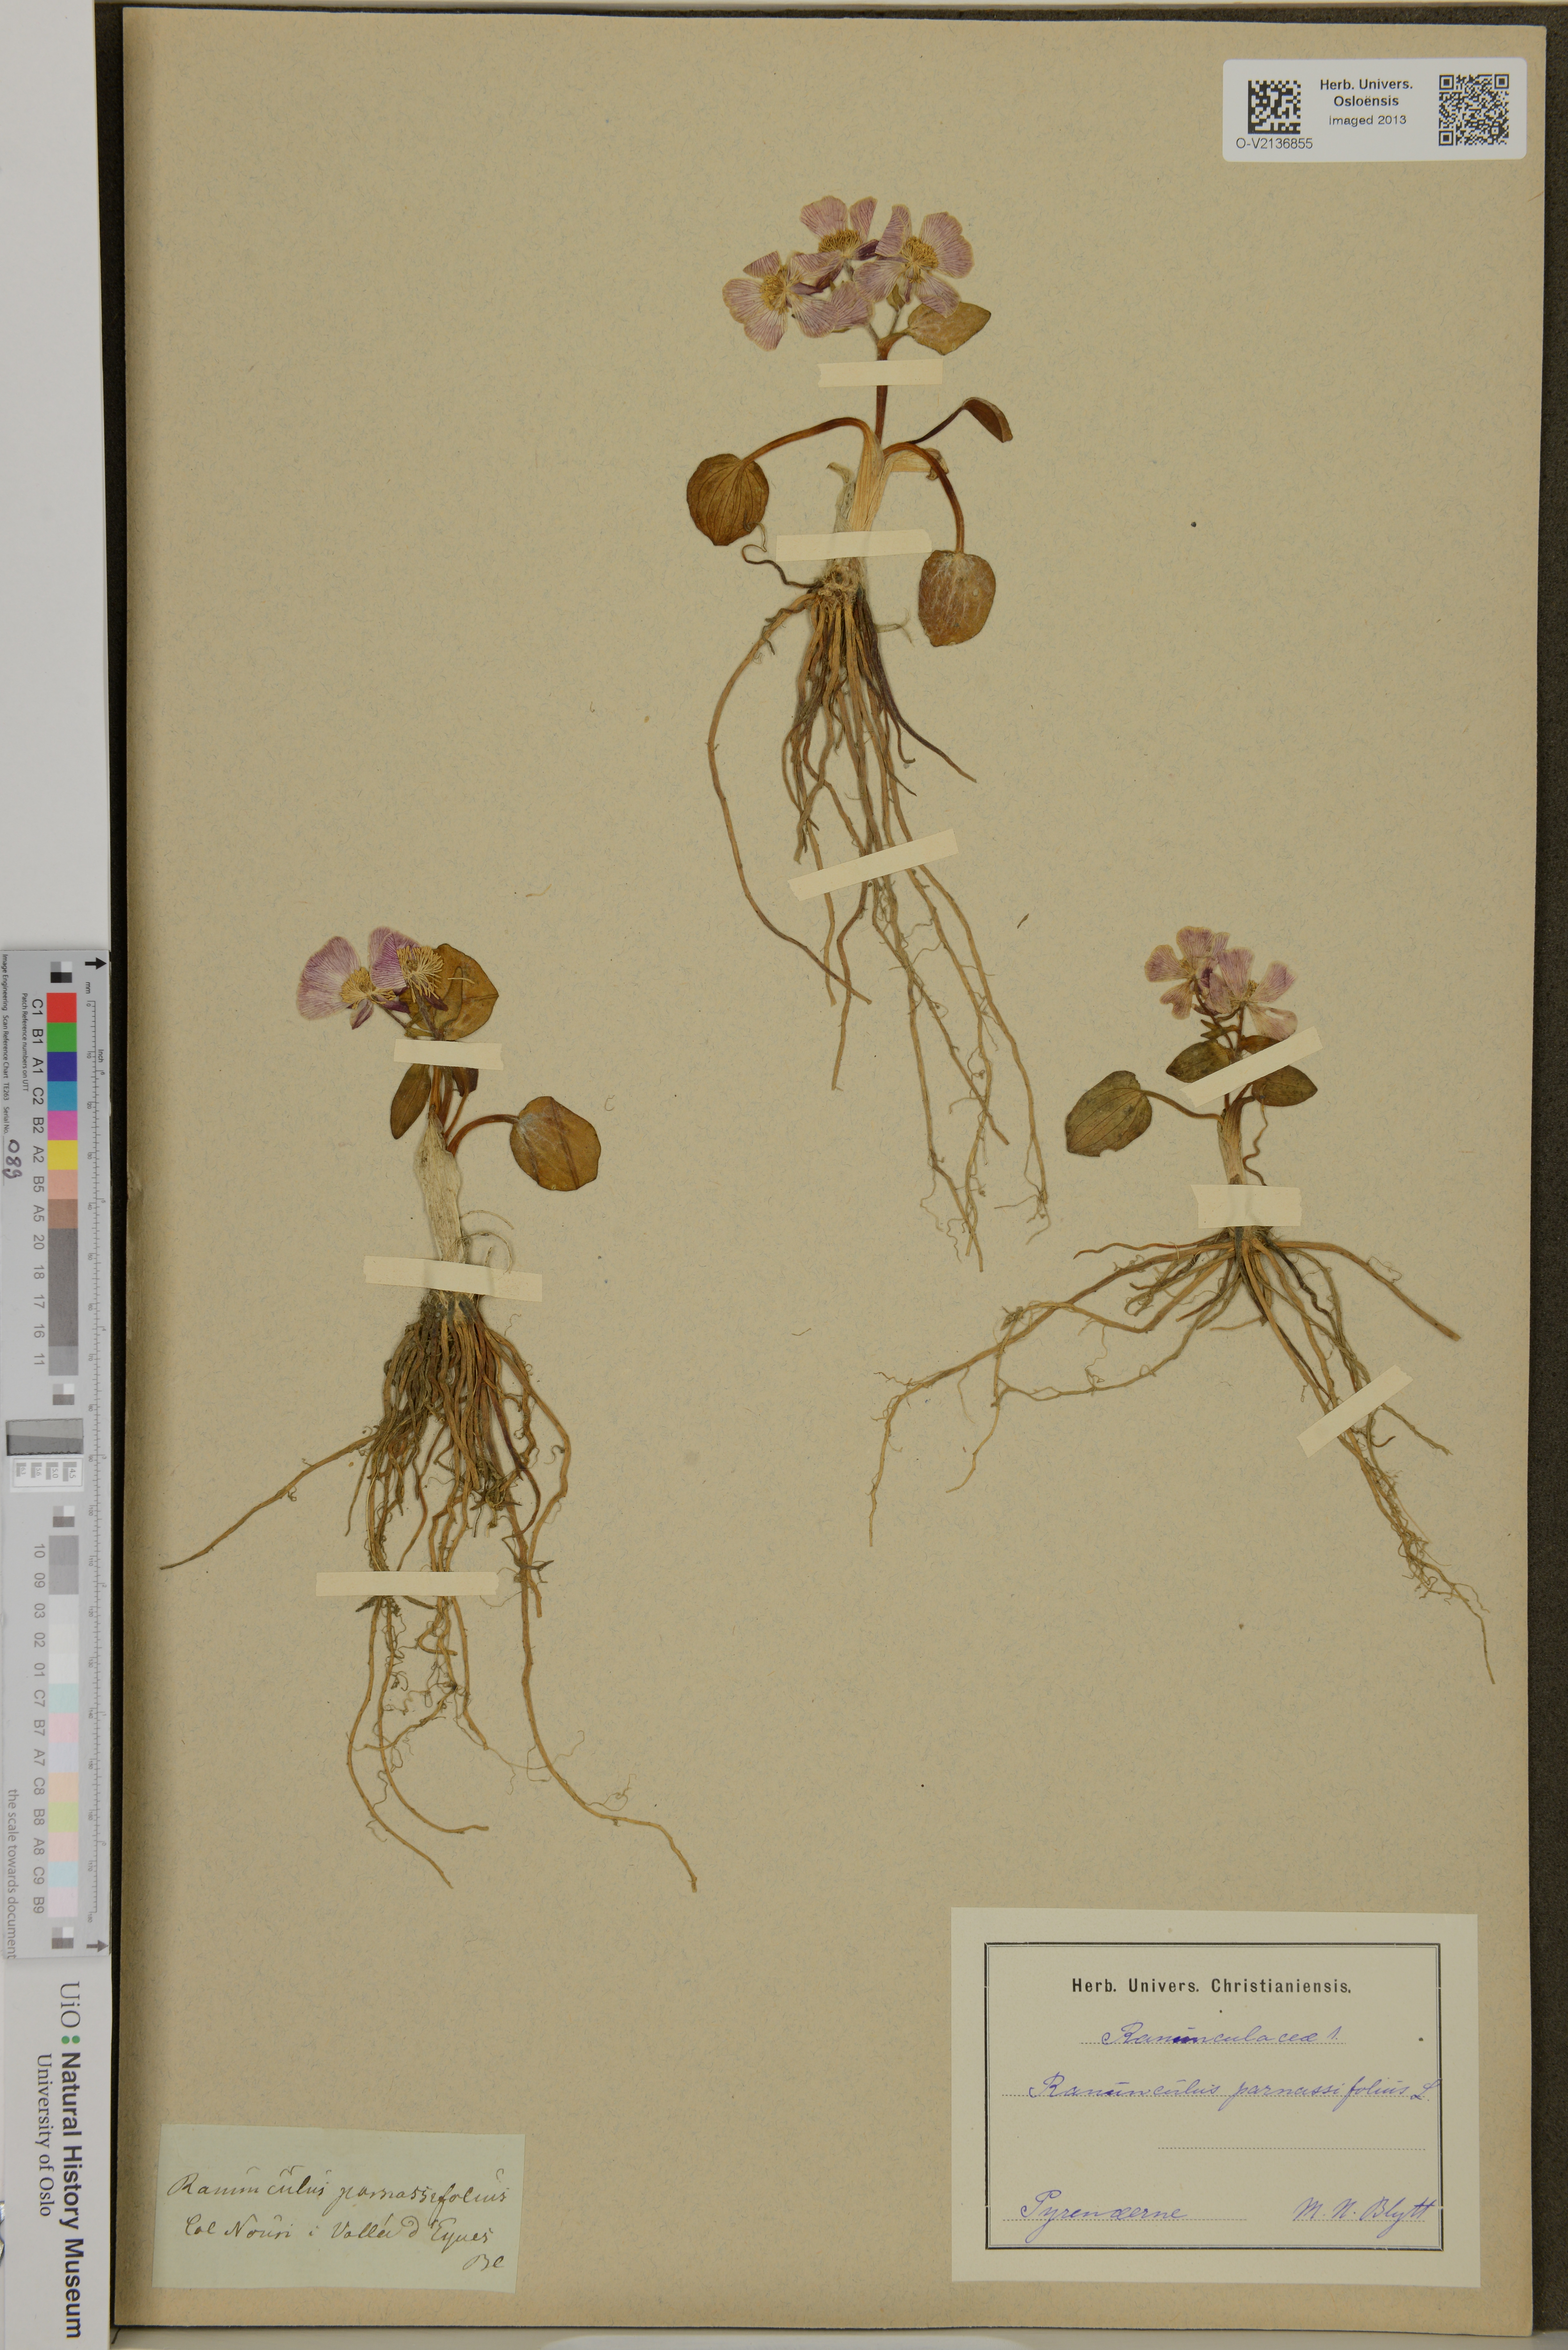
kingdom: Plantae
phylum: Tracheophyta
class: Magnoliopsida
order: Ranunculales
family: Ranunculaceae
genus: Ranunculus
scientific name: Ranunculus parnassiifolius
